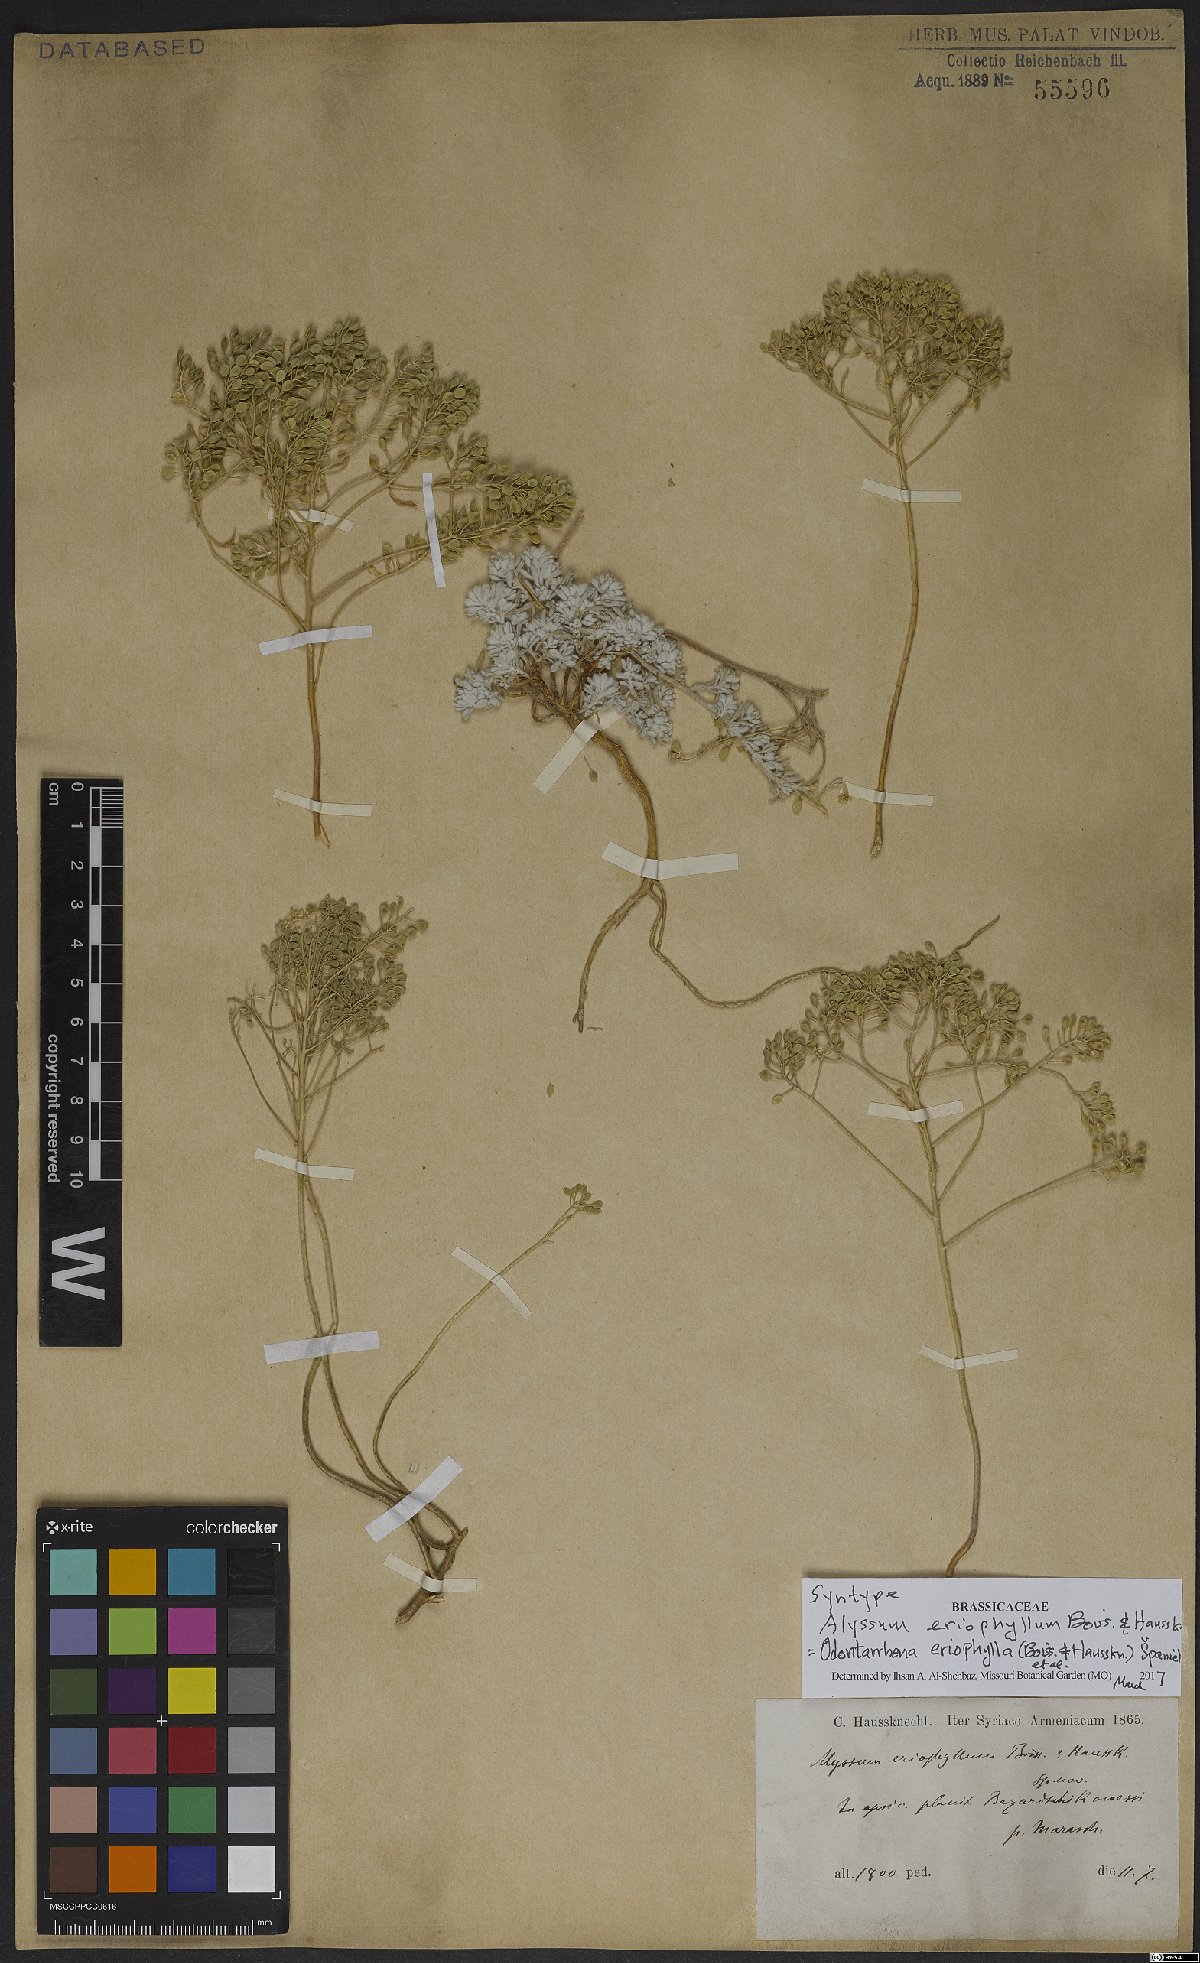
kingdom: Plantae
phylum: Tracheophyta
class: Magnoliopsida
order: Brassicales
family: Brassicaceae
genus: Odontarrhena
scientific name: Odontarrhena eriophylla
